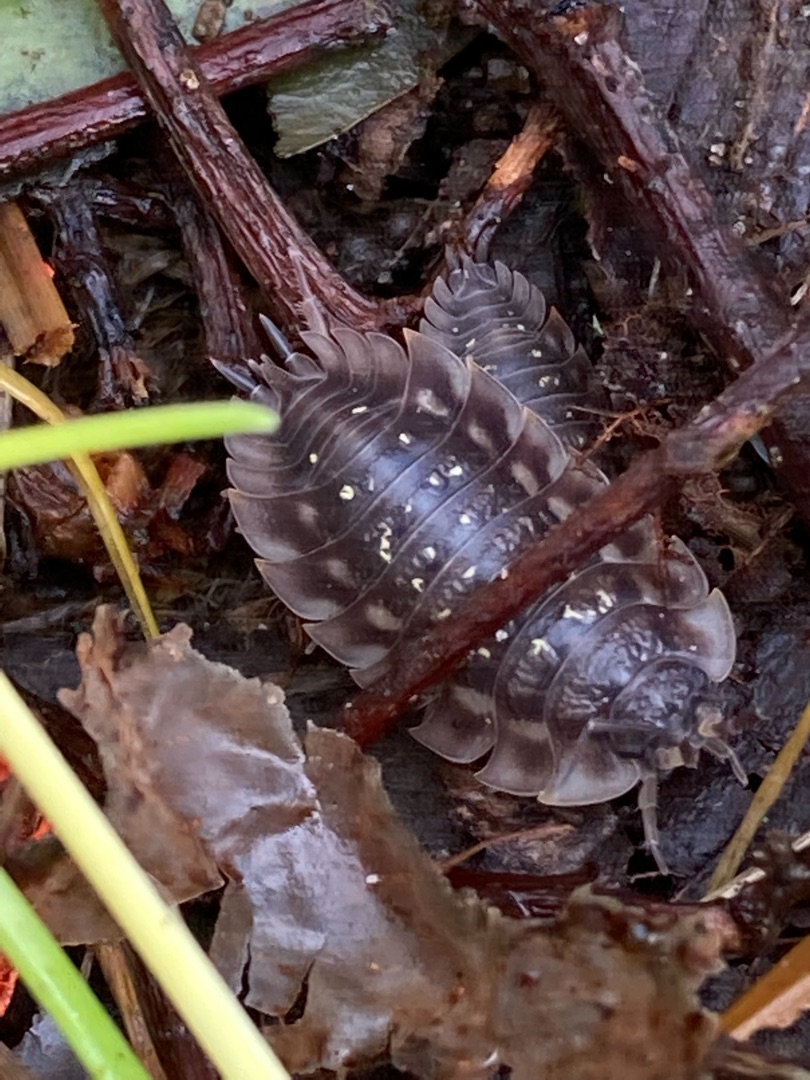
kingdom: Animalia
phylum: Arthropoda
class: Malacostraca
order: Isopoda
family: Oniscidae
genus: Oniscus
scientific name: Oniscus asellus
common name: Glat bænkebider
